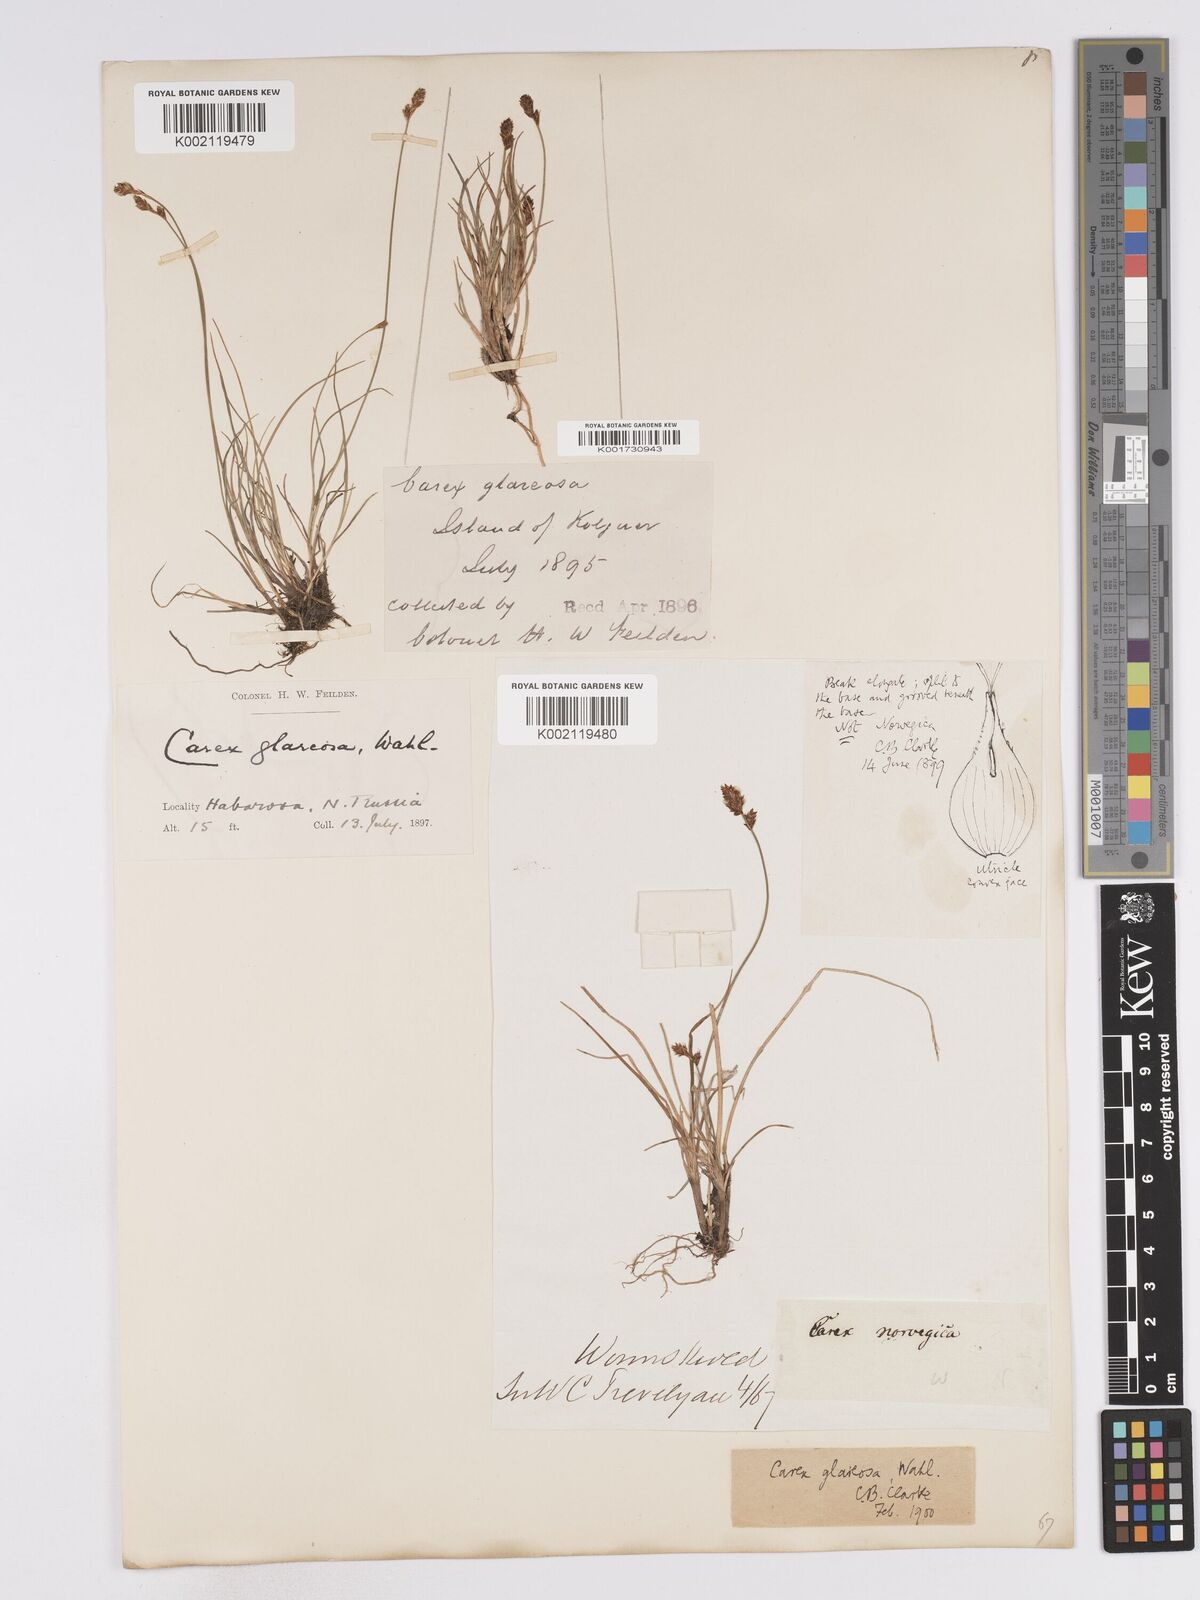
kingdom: Plantae
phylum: Tracheophyta
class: Liliopsida
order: Poales
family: Cyperaceae
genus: Carex
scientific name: Carex glareosa
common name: Clustered sedge
